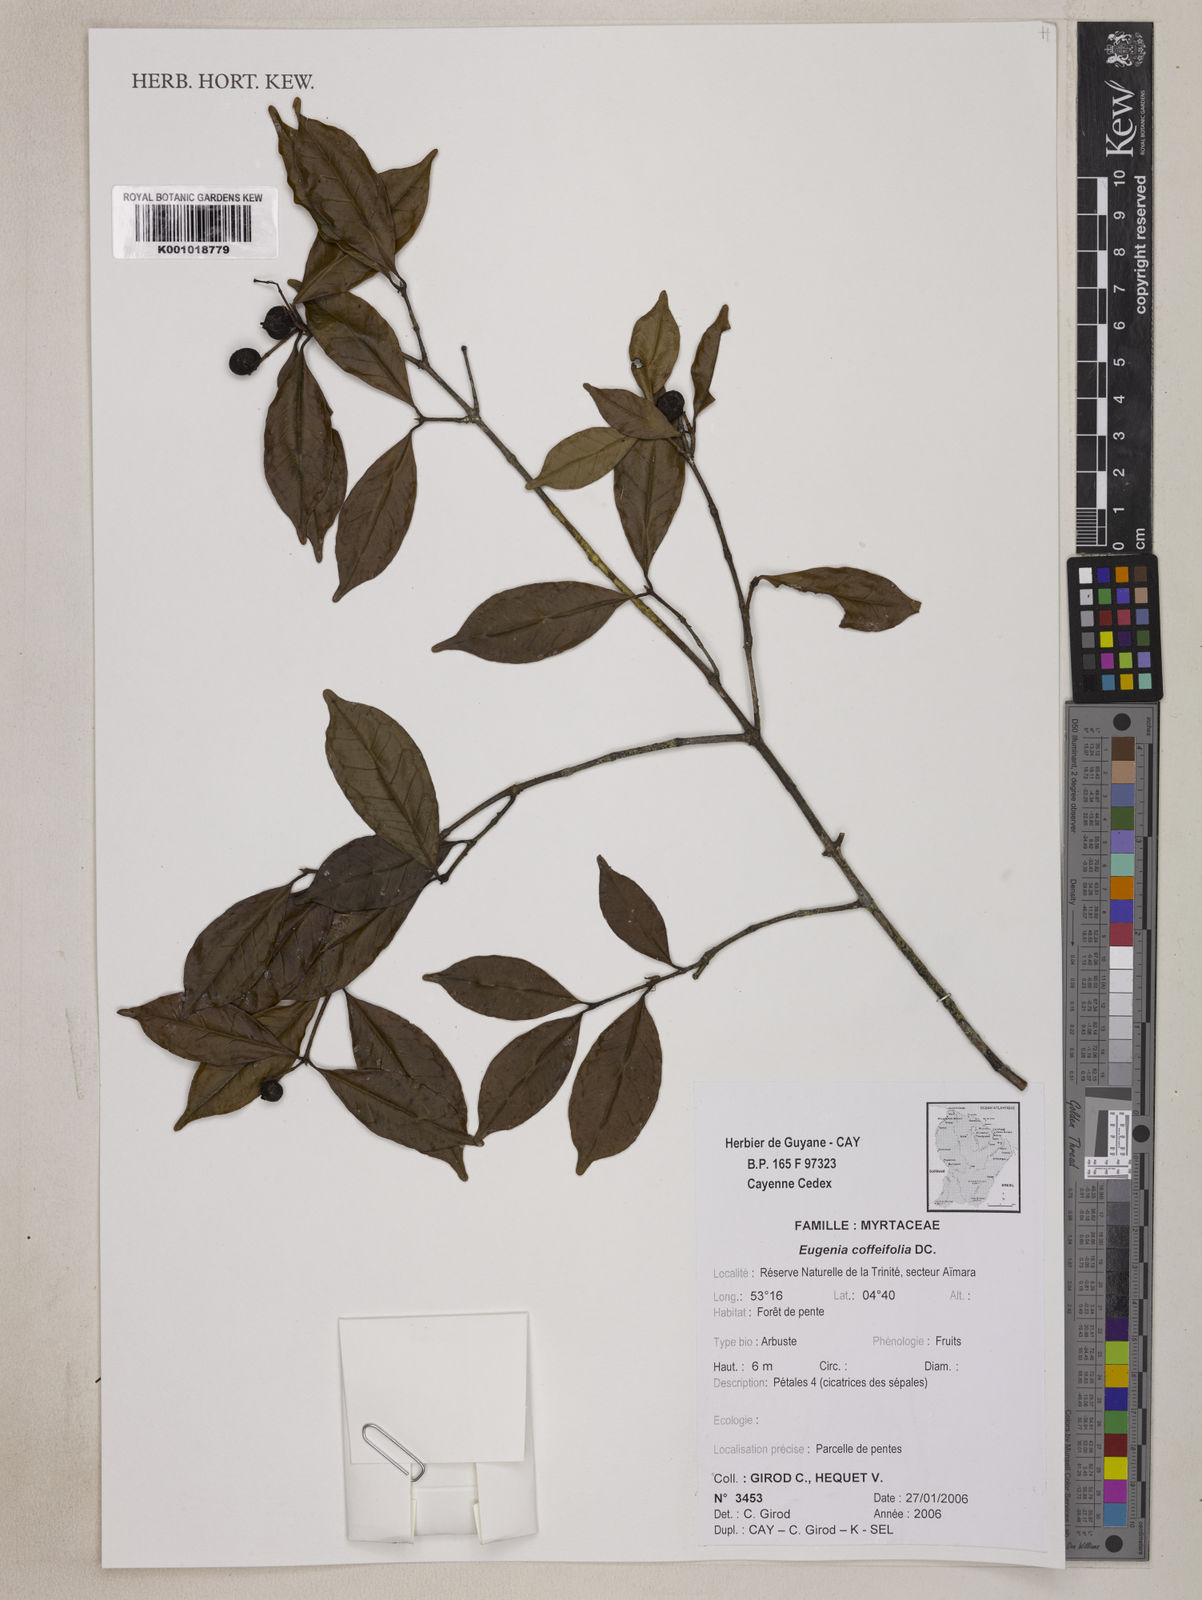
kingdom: Plantae
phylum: Tracheophyta
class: Magnoliopsida
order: Myrtales
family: Myrtaceae
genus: Eugenia
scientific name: Eugenia coffeifolia
